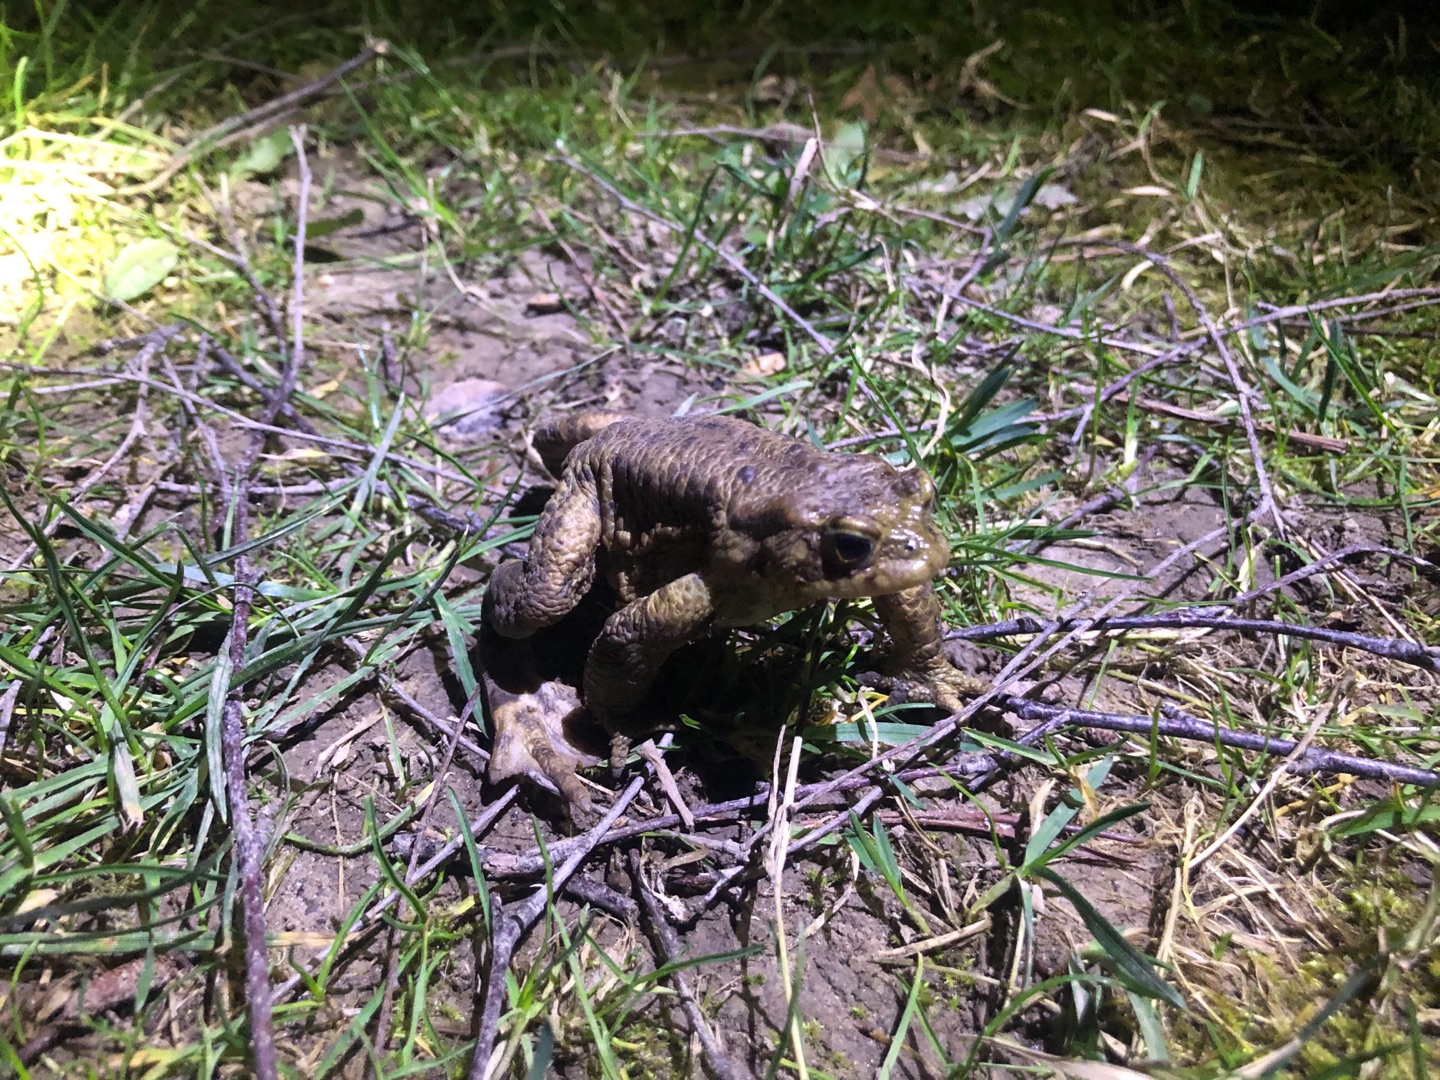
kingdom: Animalia
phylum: Chordata
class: Amphibia
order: Anura
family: Bufonidae
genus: Bufo
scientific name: Bufo bufo
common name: Skrubtudse
